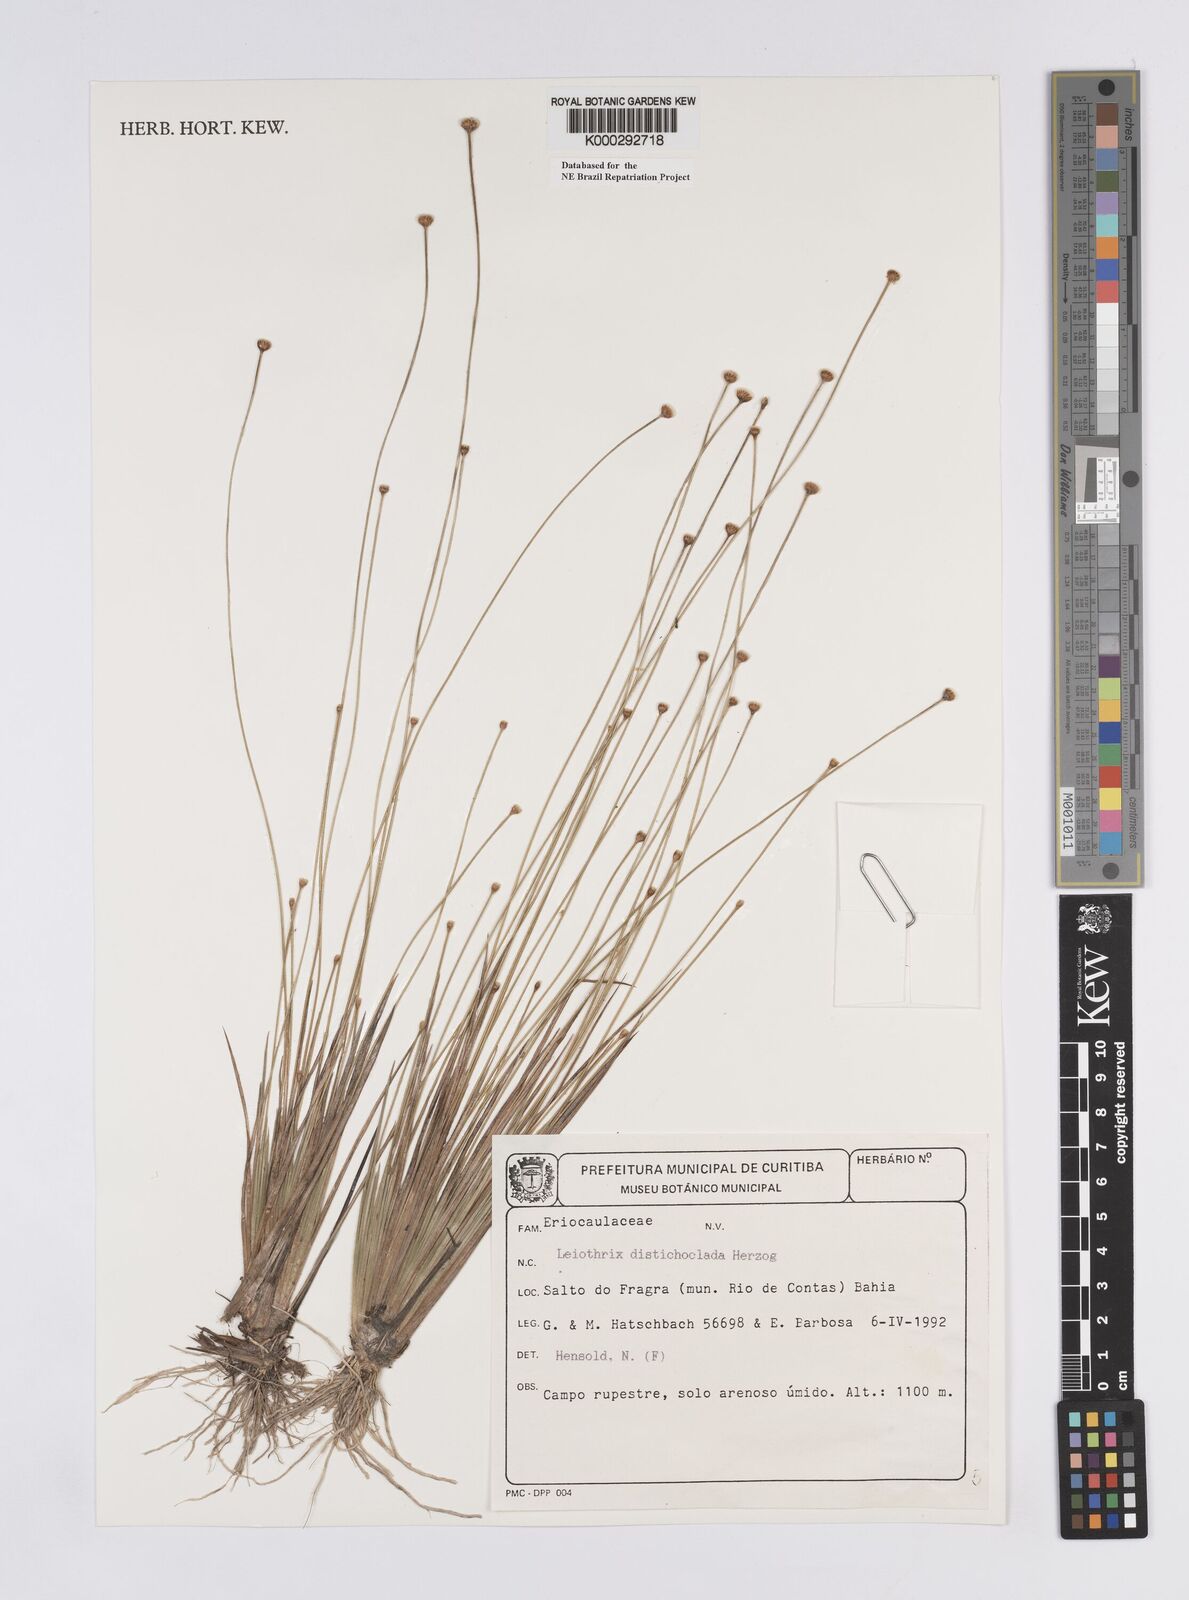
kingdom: Plantae
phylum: Tracheophyta
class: Liliopsida
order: Poales
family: Eriocaulaceae
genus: Leiothrix
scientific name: Leiothrix distichoclada
